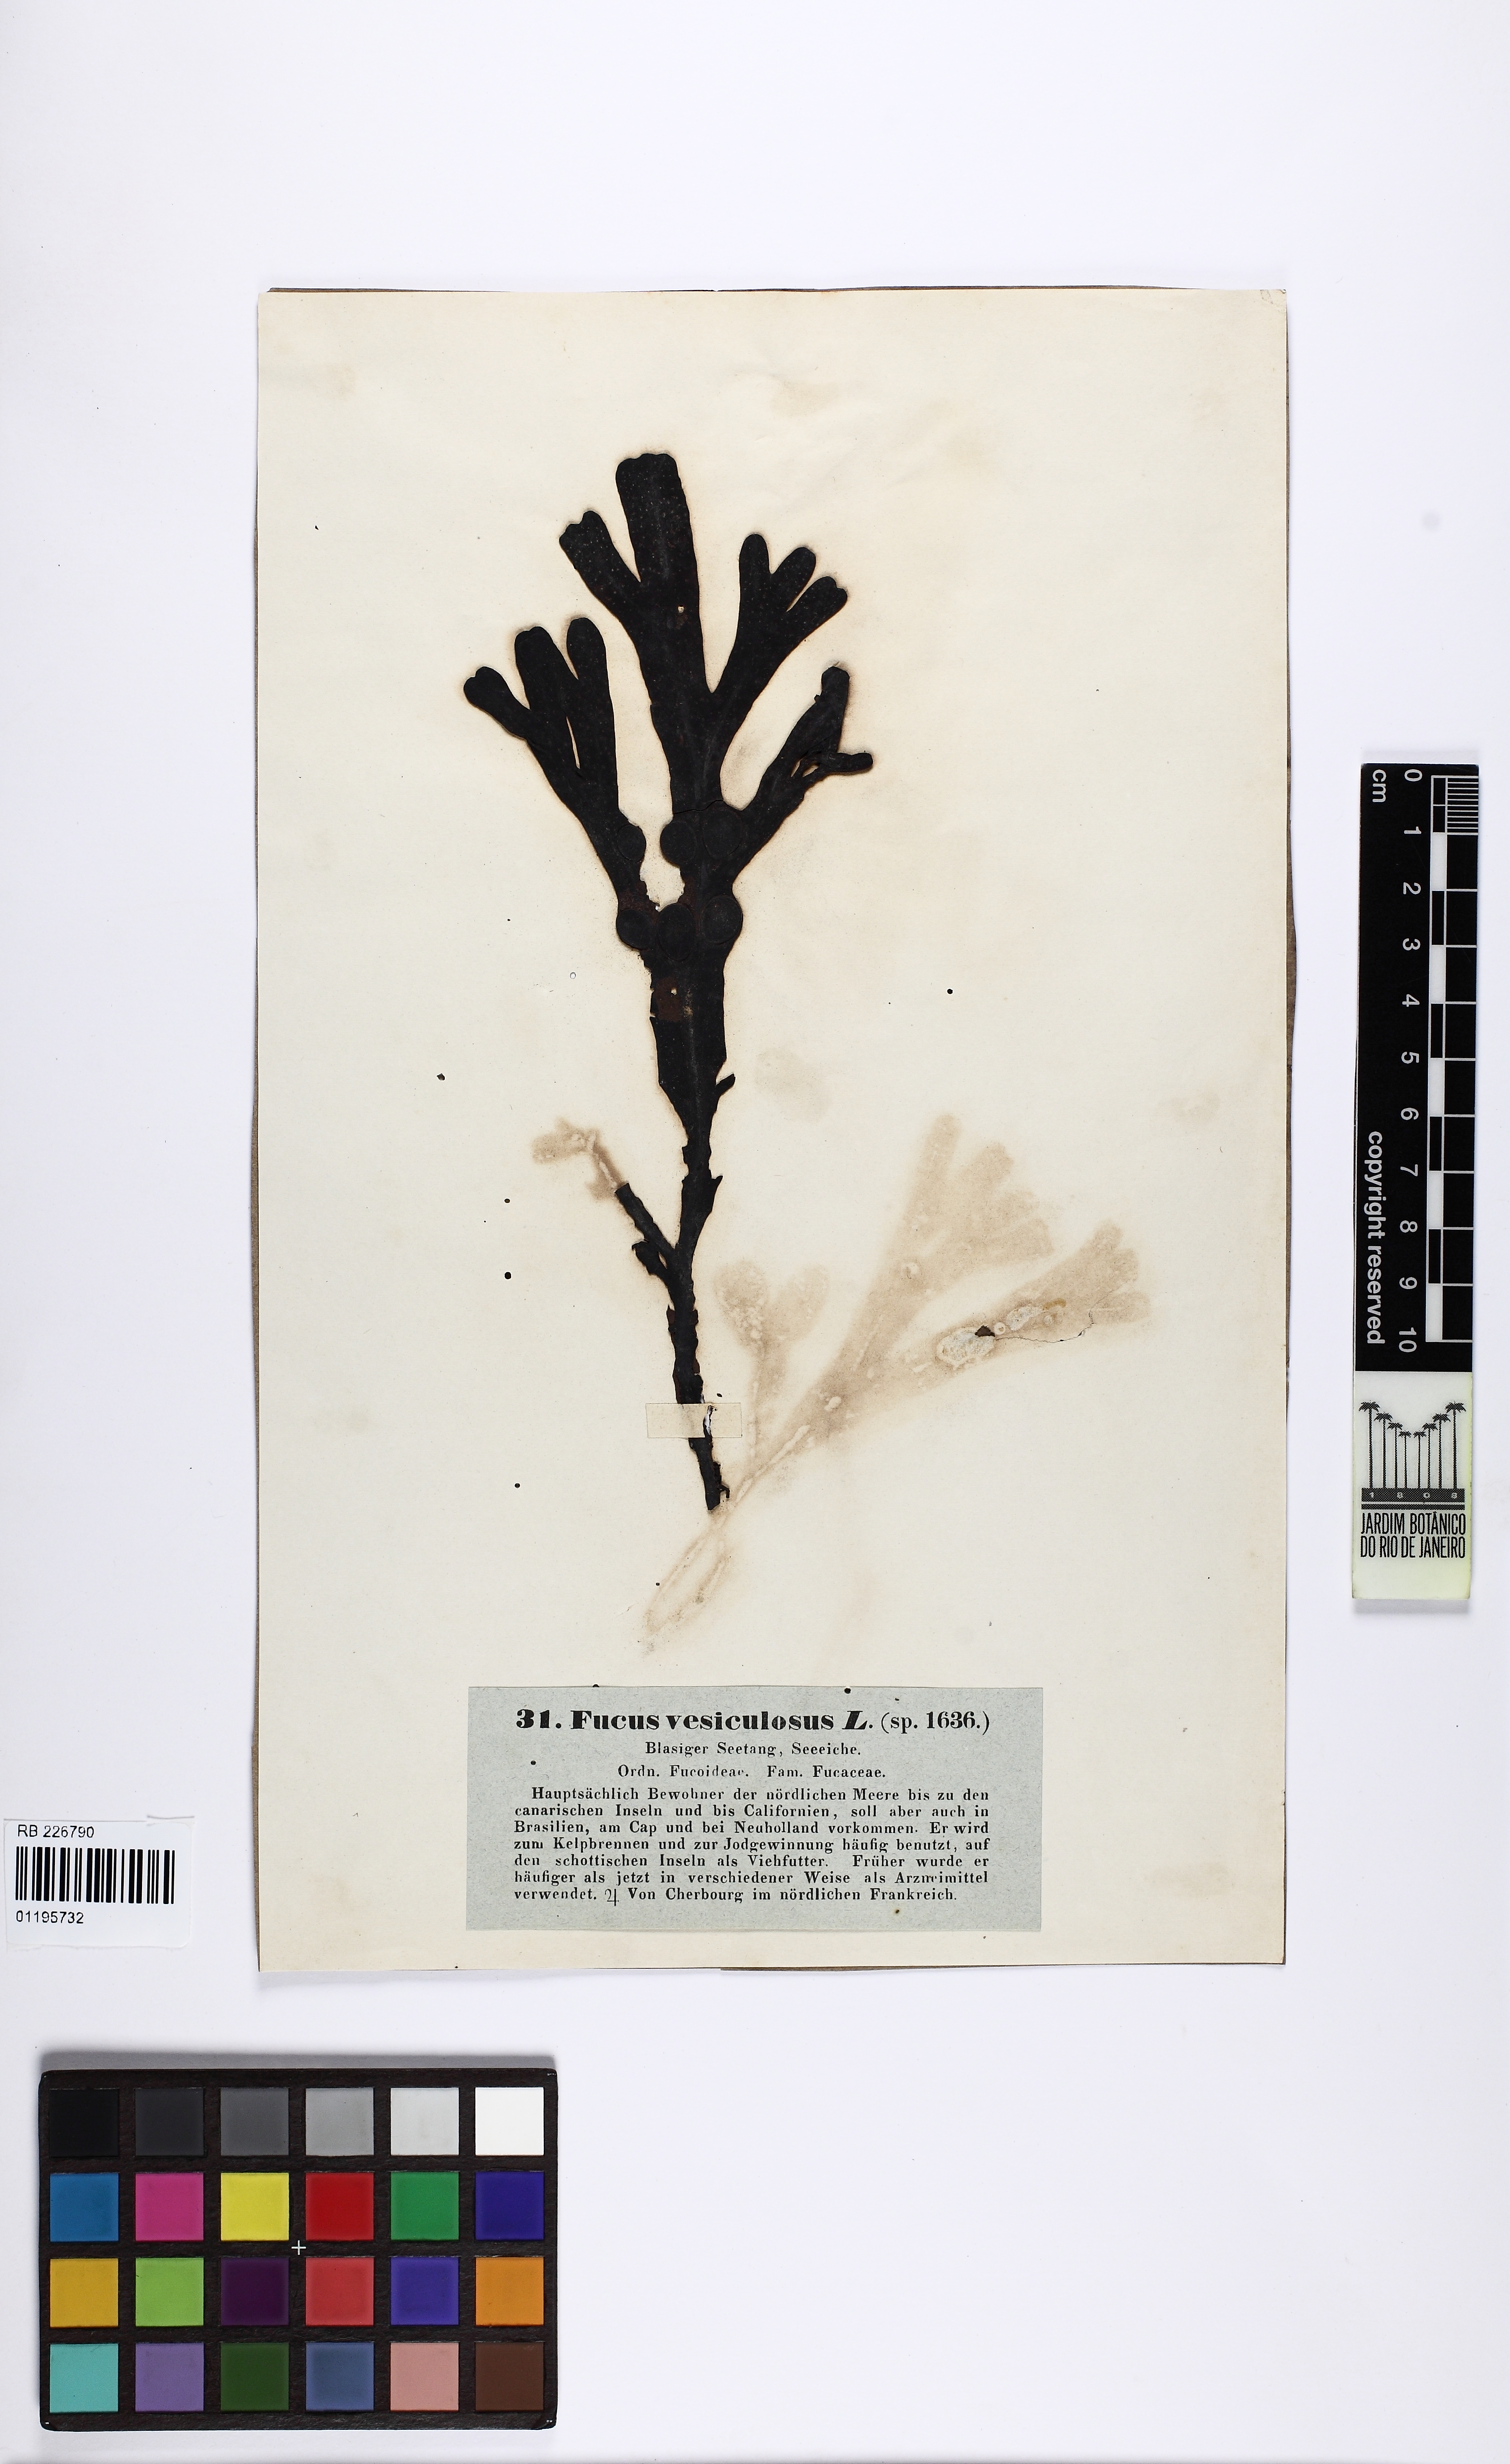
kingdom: Chromista
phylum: Ochrophyta
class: Phaeophyceae
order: Fucales
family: Fucaceae
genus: Fucus
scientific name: Fucus vesiculosus
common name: Bladder wrack
